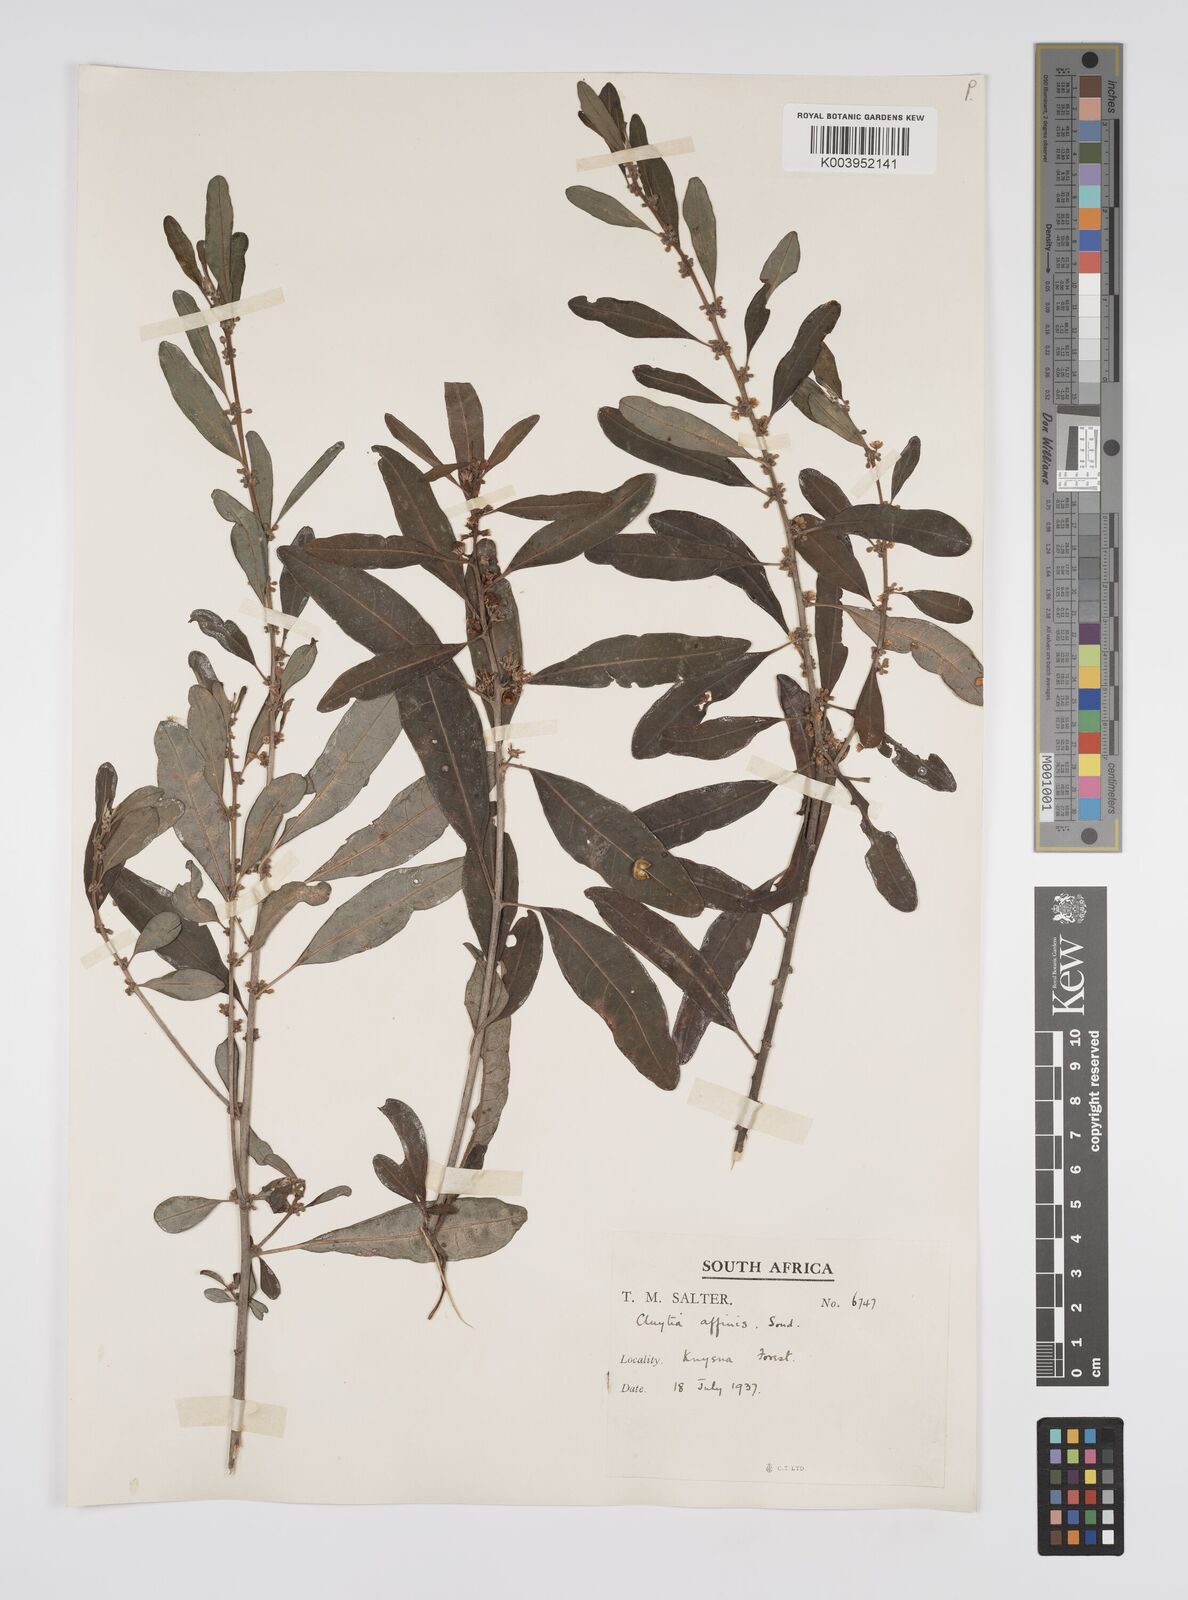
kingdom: Plantae
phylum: Tracheophyta
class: Magnoliopsida
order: Malpighiales
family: Peraceae
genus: Clutia
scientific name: Clutia affinis
